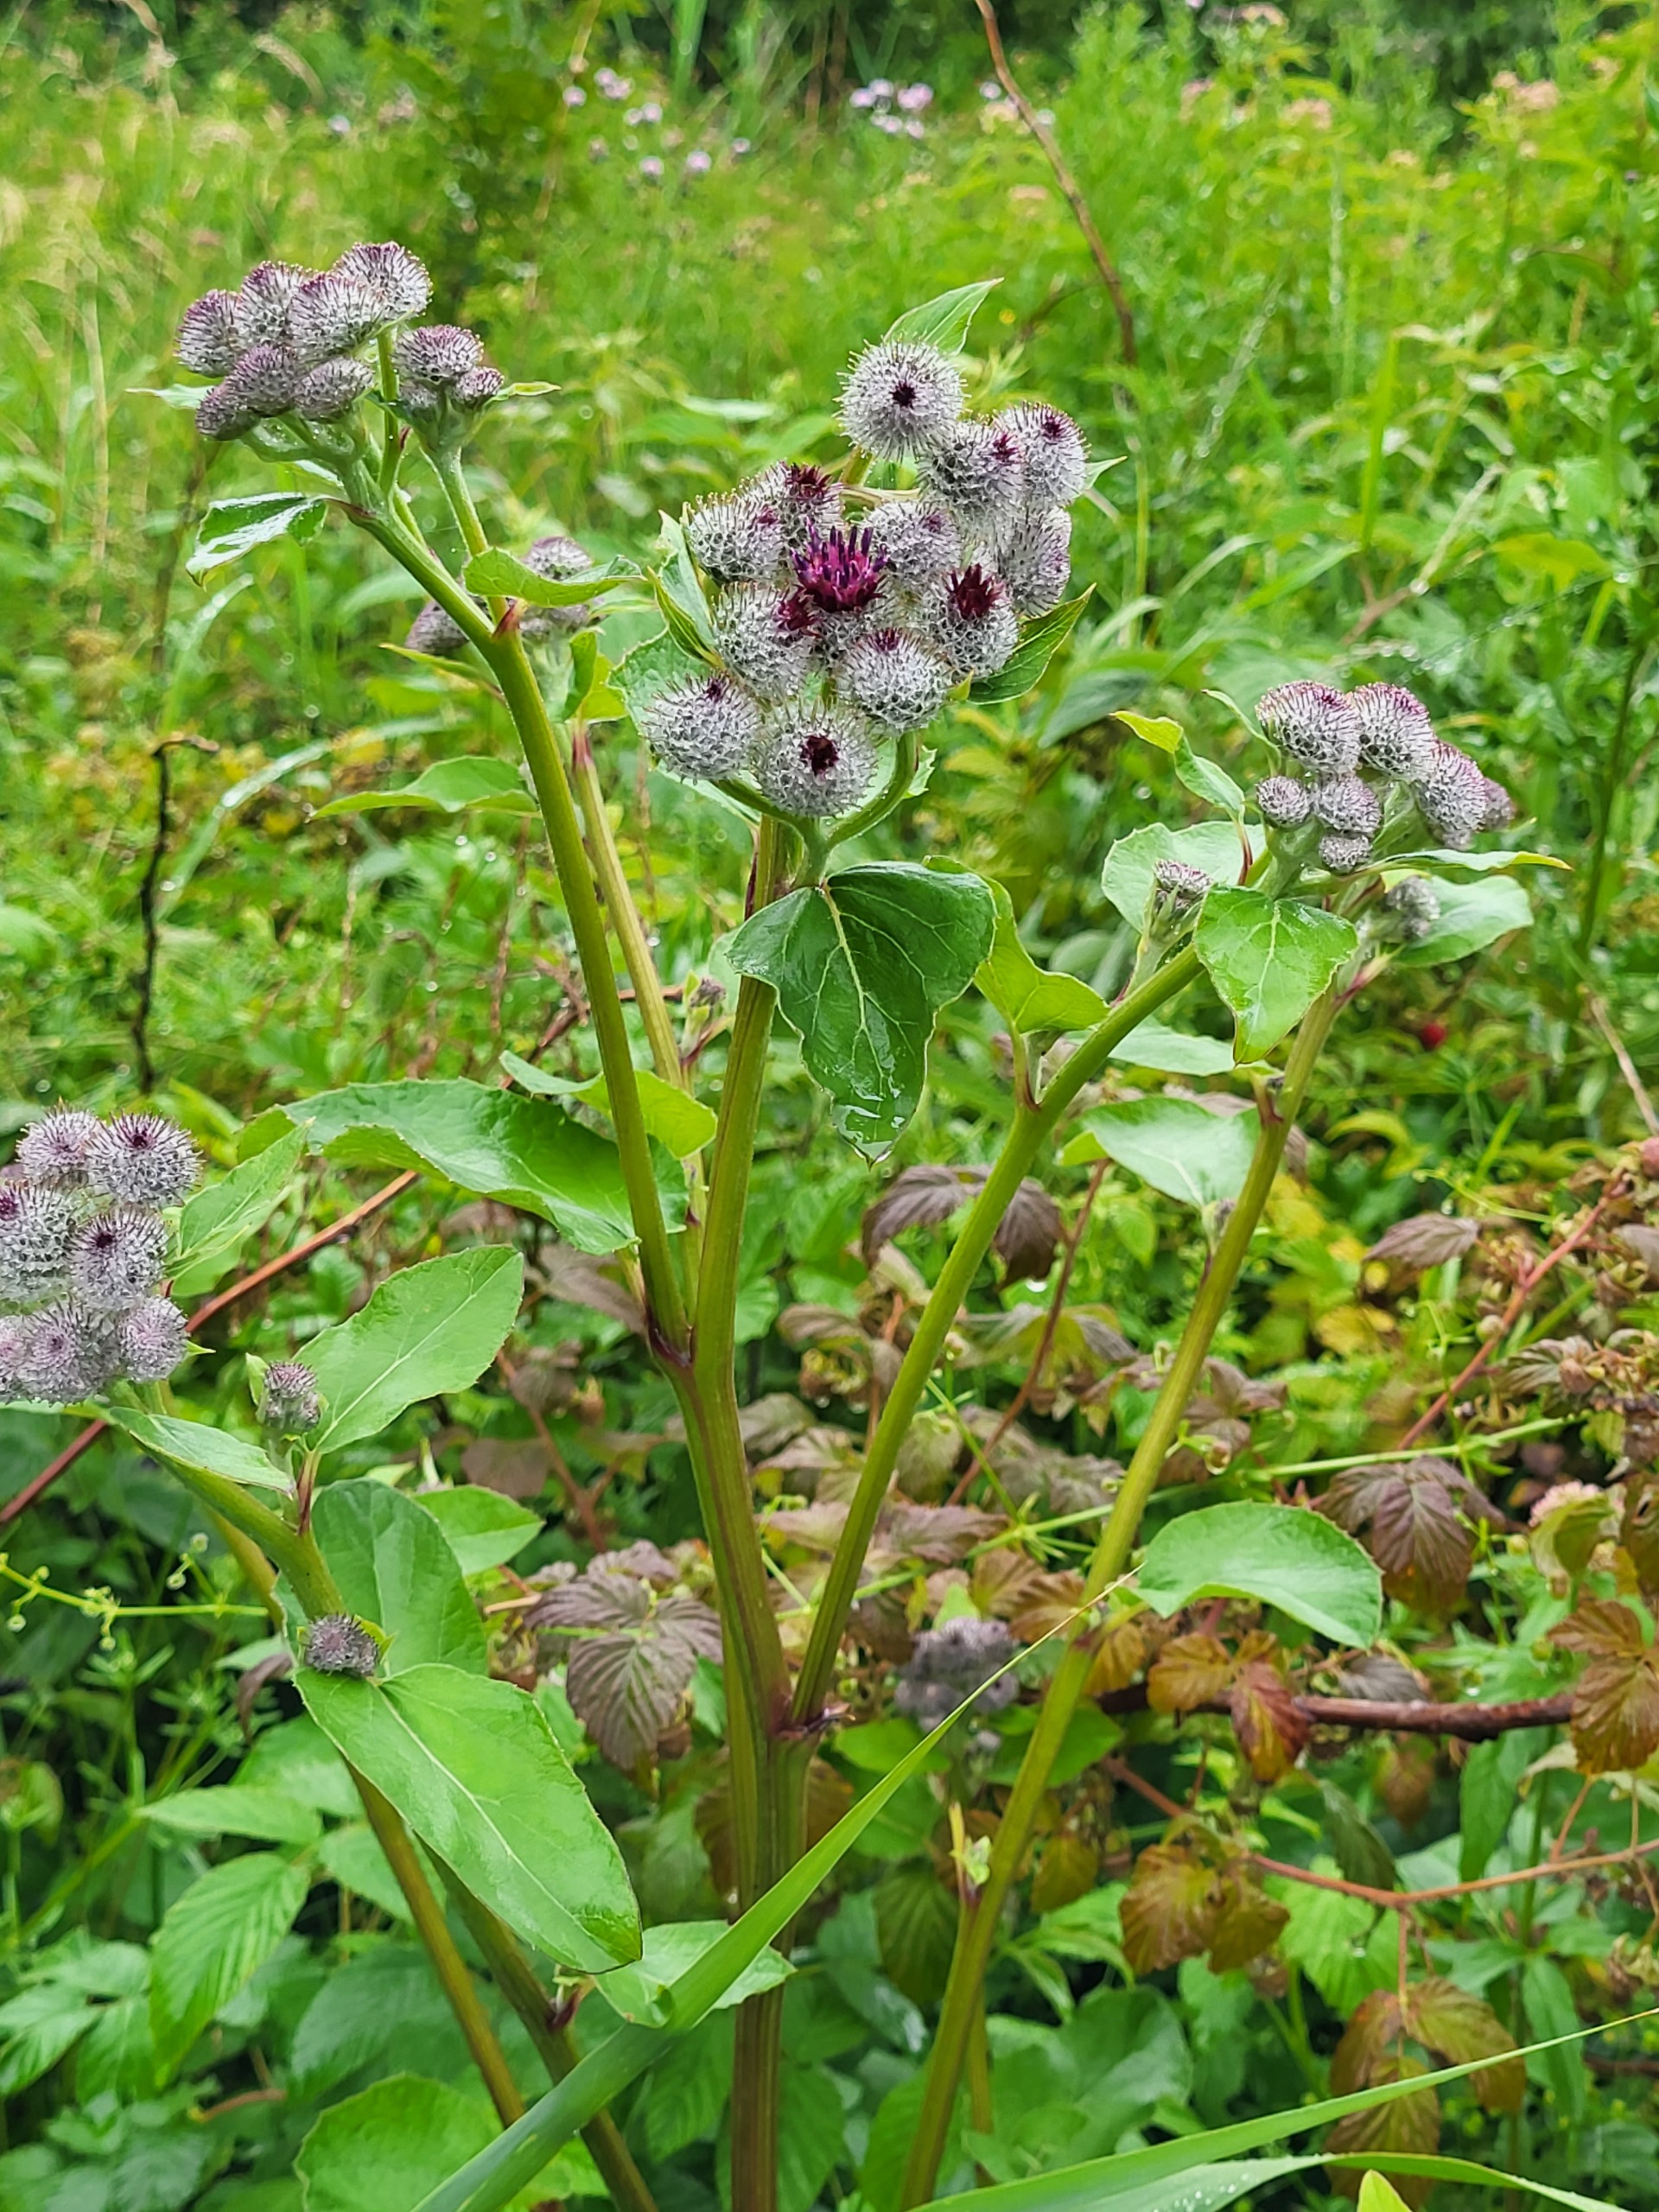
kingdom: Plantae
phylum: Tracheophyta
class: Magnoliopsida
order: Asterales
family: Asteraceae
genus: Arctium
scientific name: Arctium tomentosum
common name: Filtet burre
